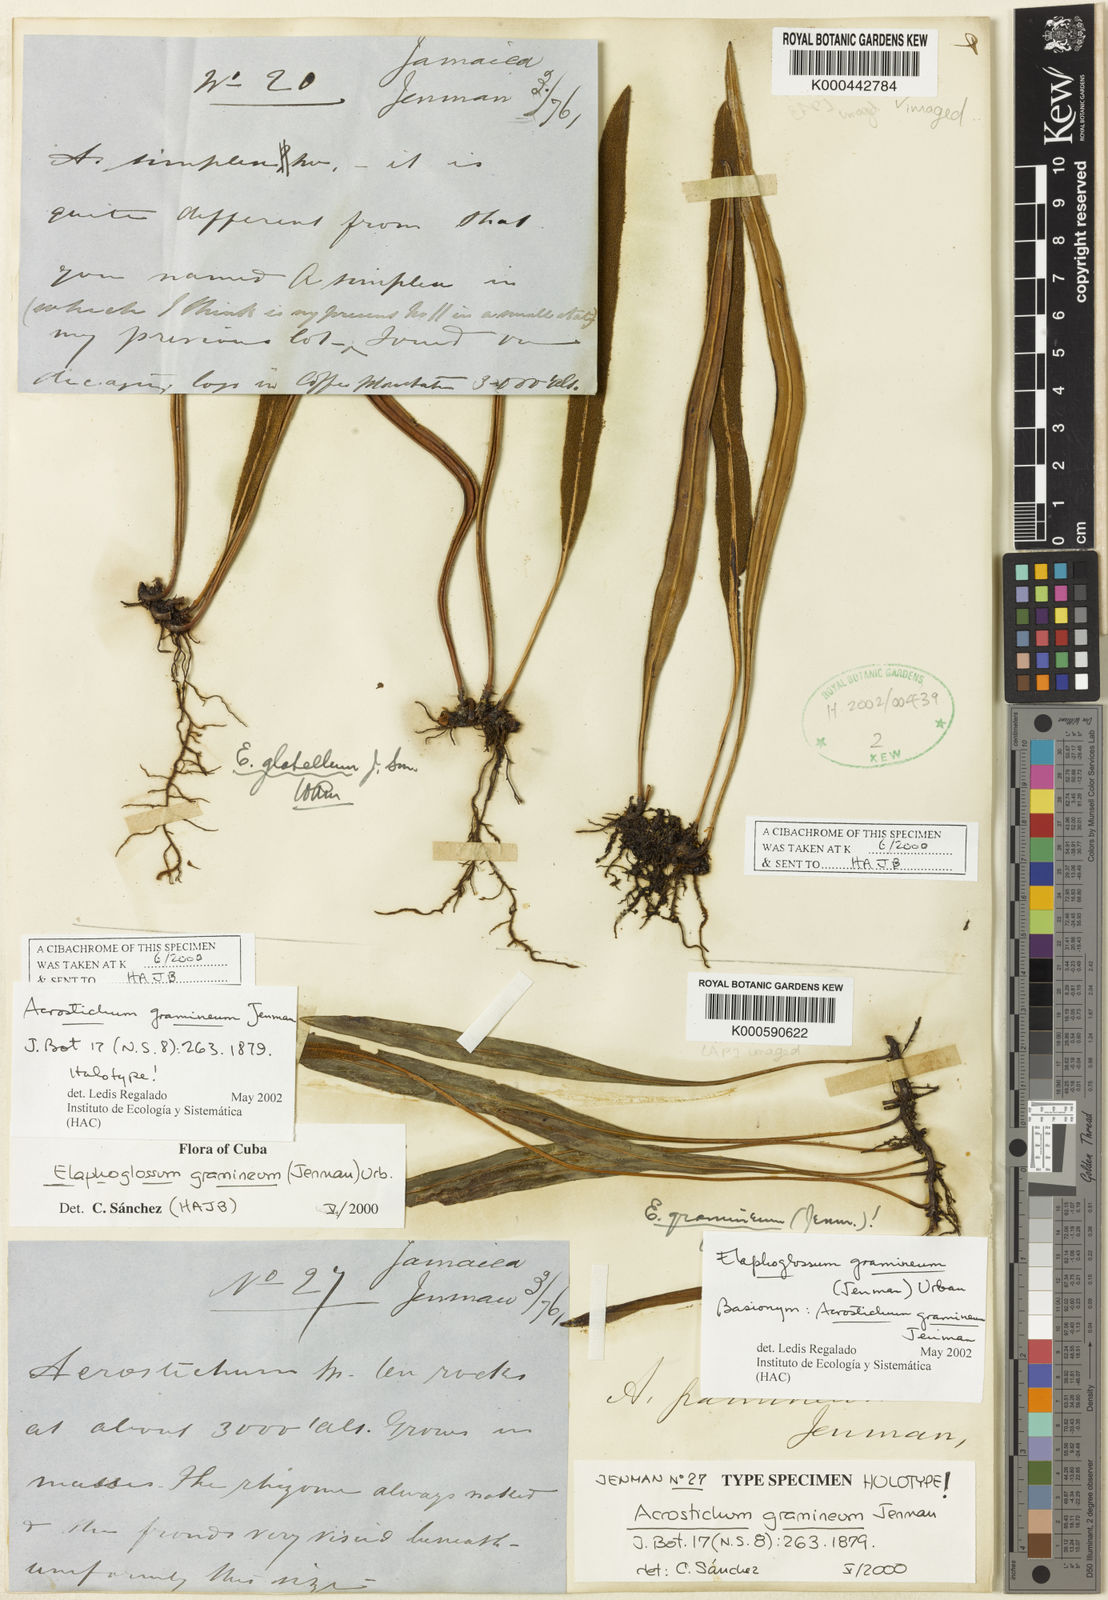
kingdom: Plantae
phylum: Tracheophyta
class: Polypodiopsida
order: Polypodiales
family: Dryopteridaceae
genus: Elaphoglossum
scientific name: Elaphoglossum gramineum
